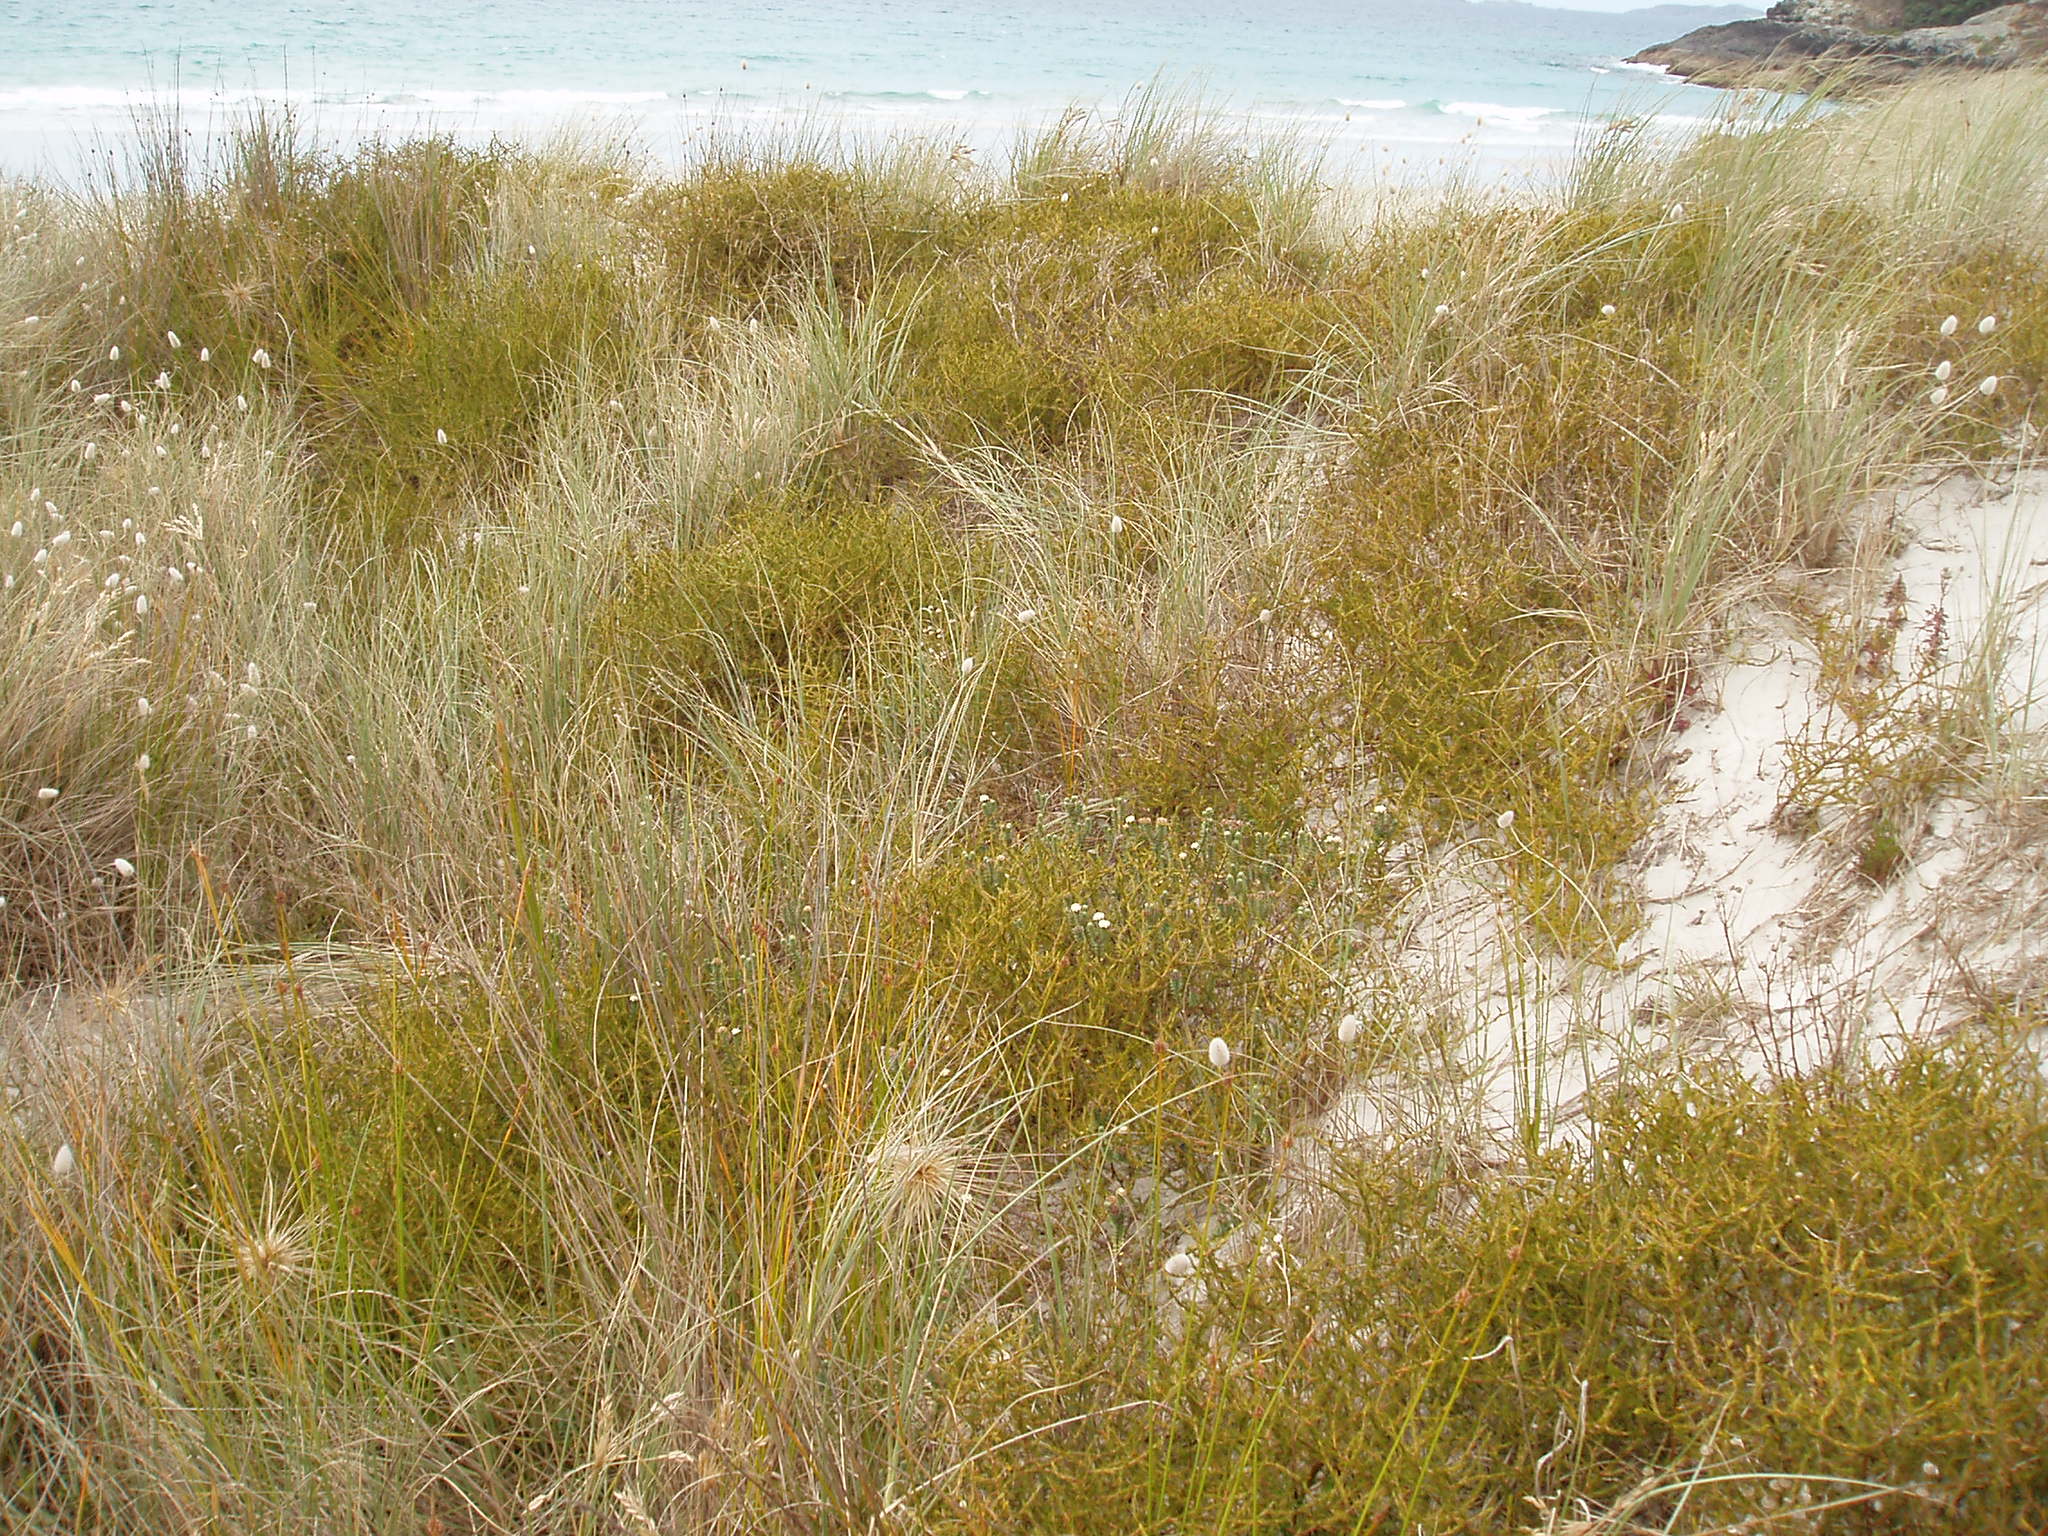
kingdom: Plantae
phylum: Tracheophyta
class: Magnoliopsida
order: Malvales
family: Thymelaeaceae
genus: Pimelea
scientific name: Pimelea villosa
